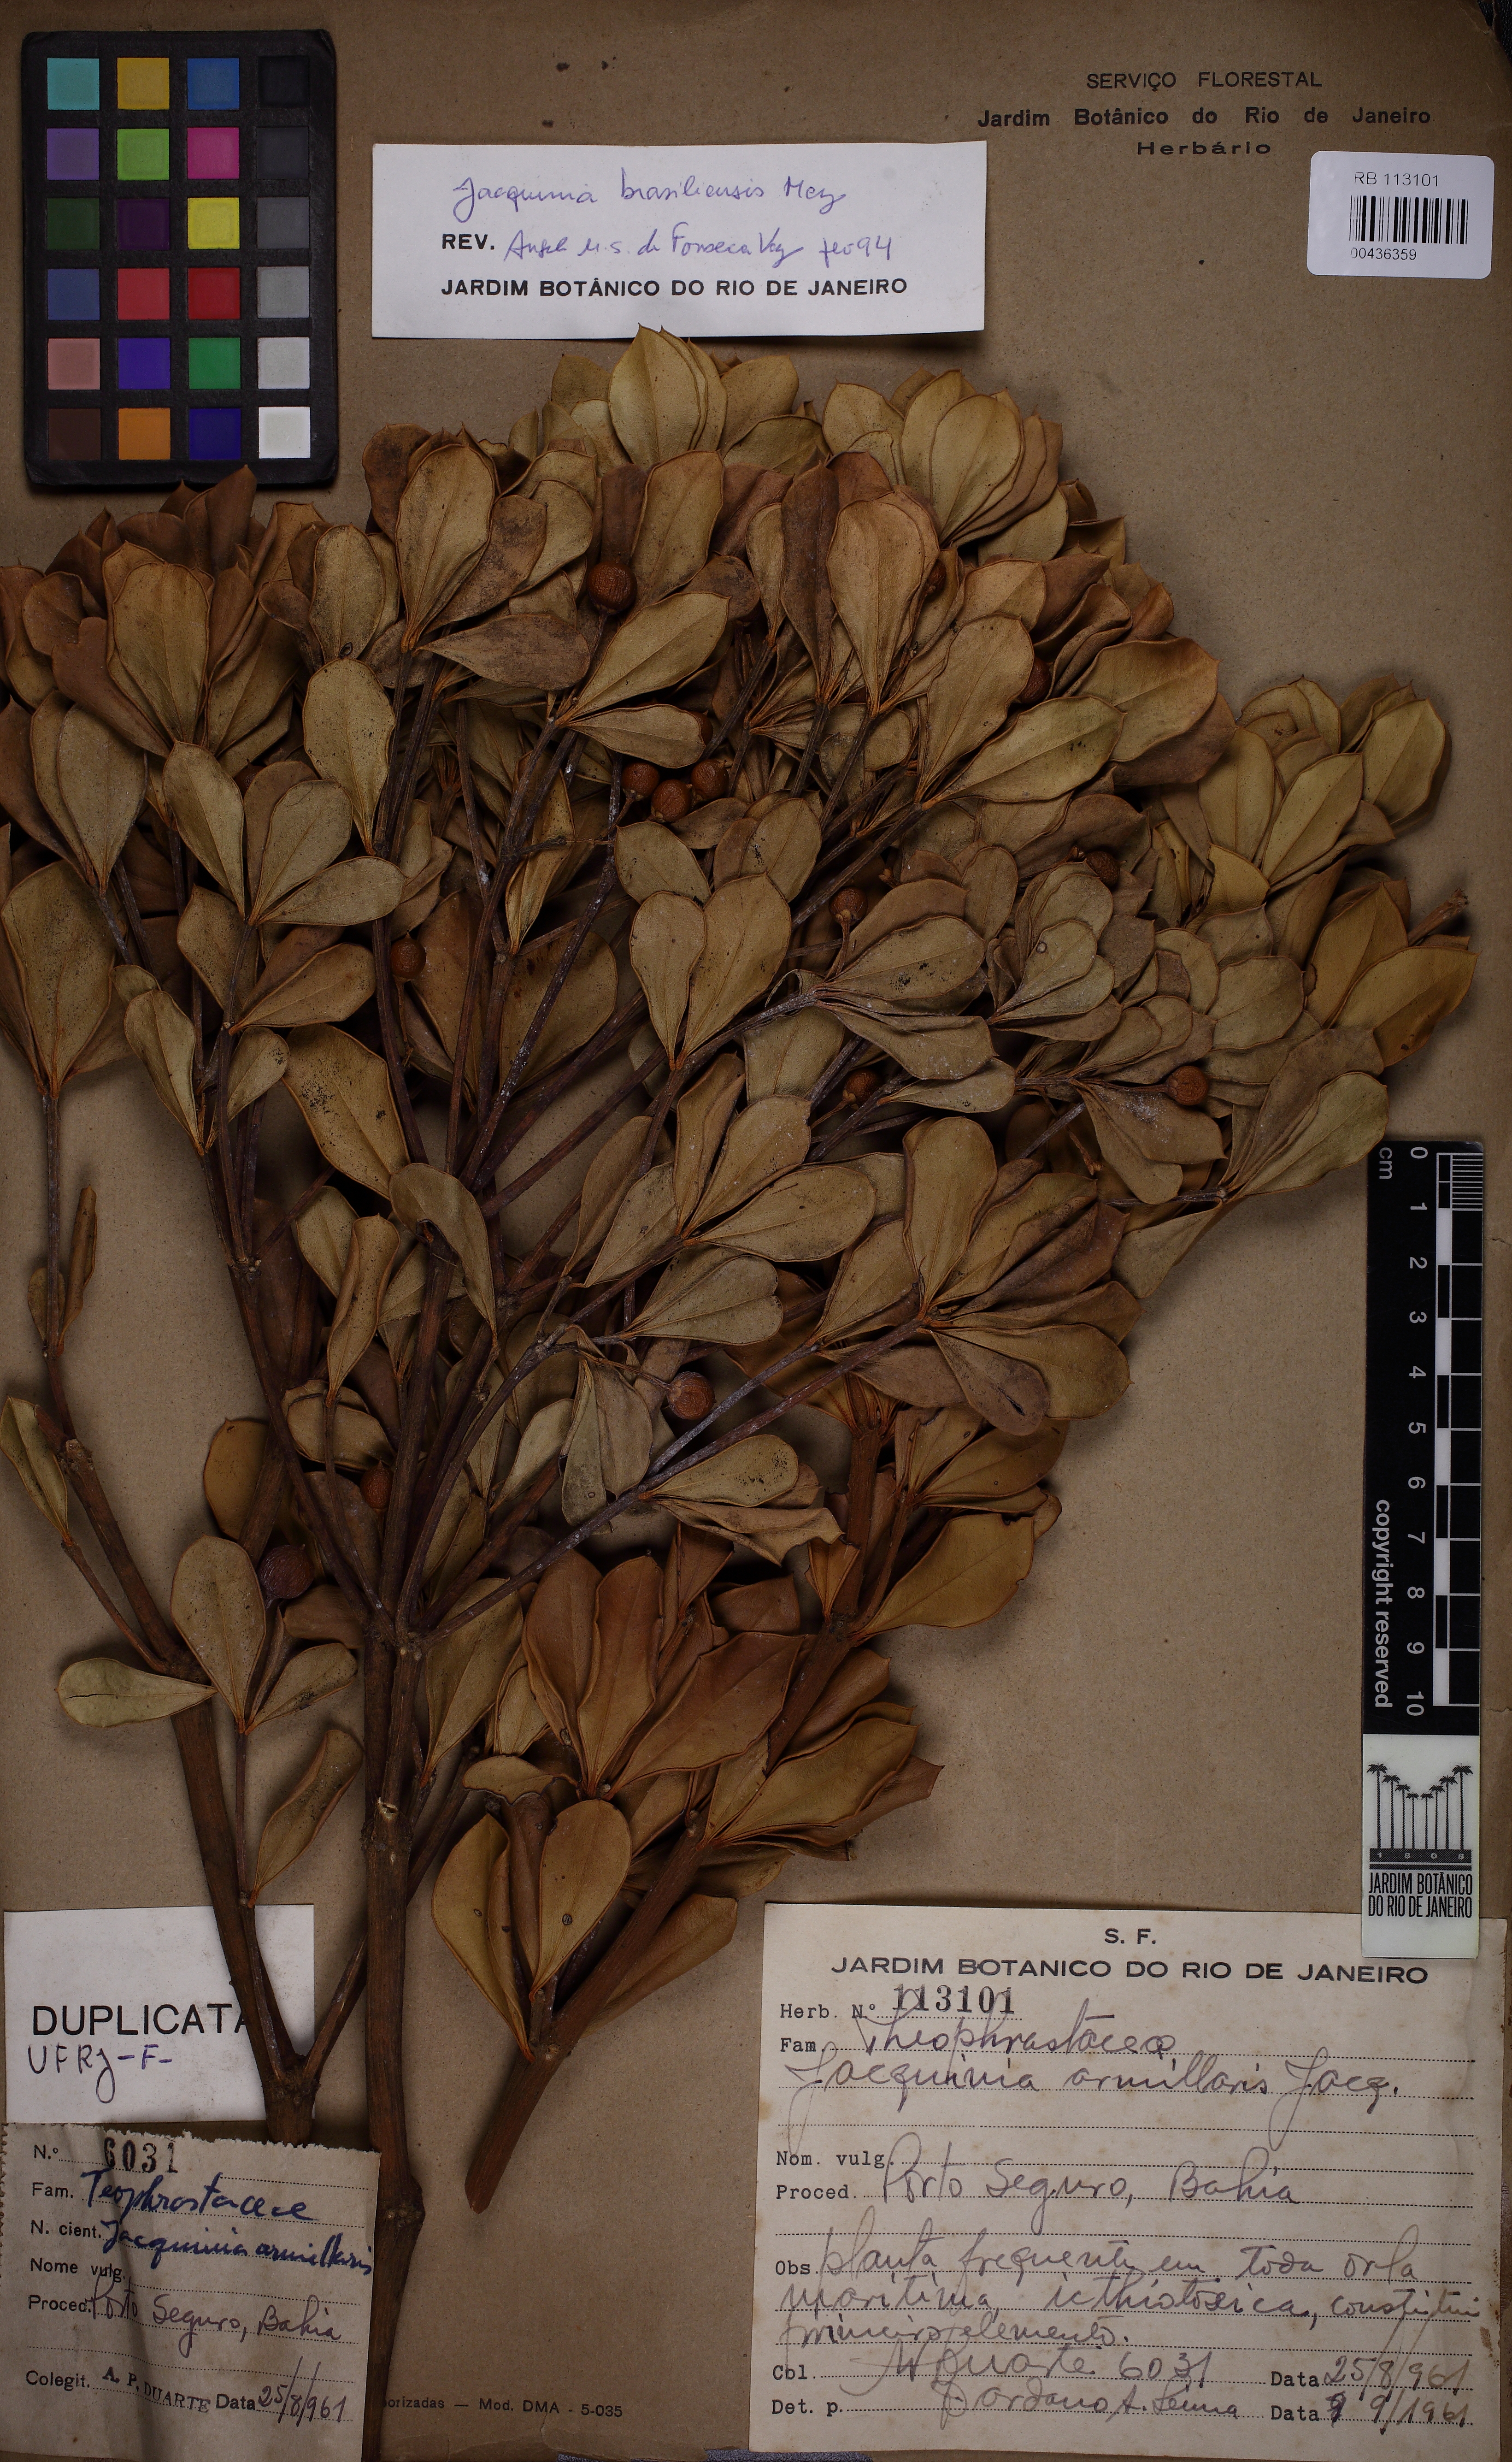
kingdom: Plantae
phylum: Tracheophyta
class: Magnoliopsida
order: Ericales
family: Primulaceae
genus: Jacquinia
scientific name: Jacquinia armillaris
